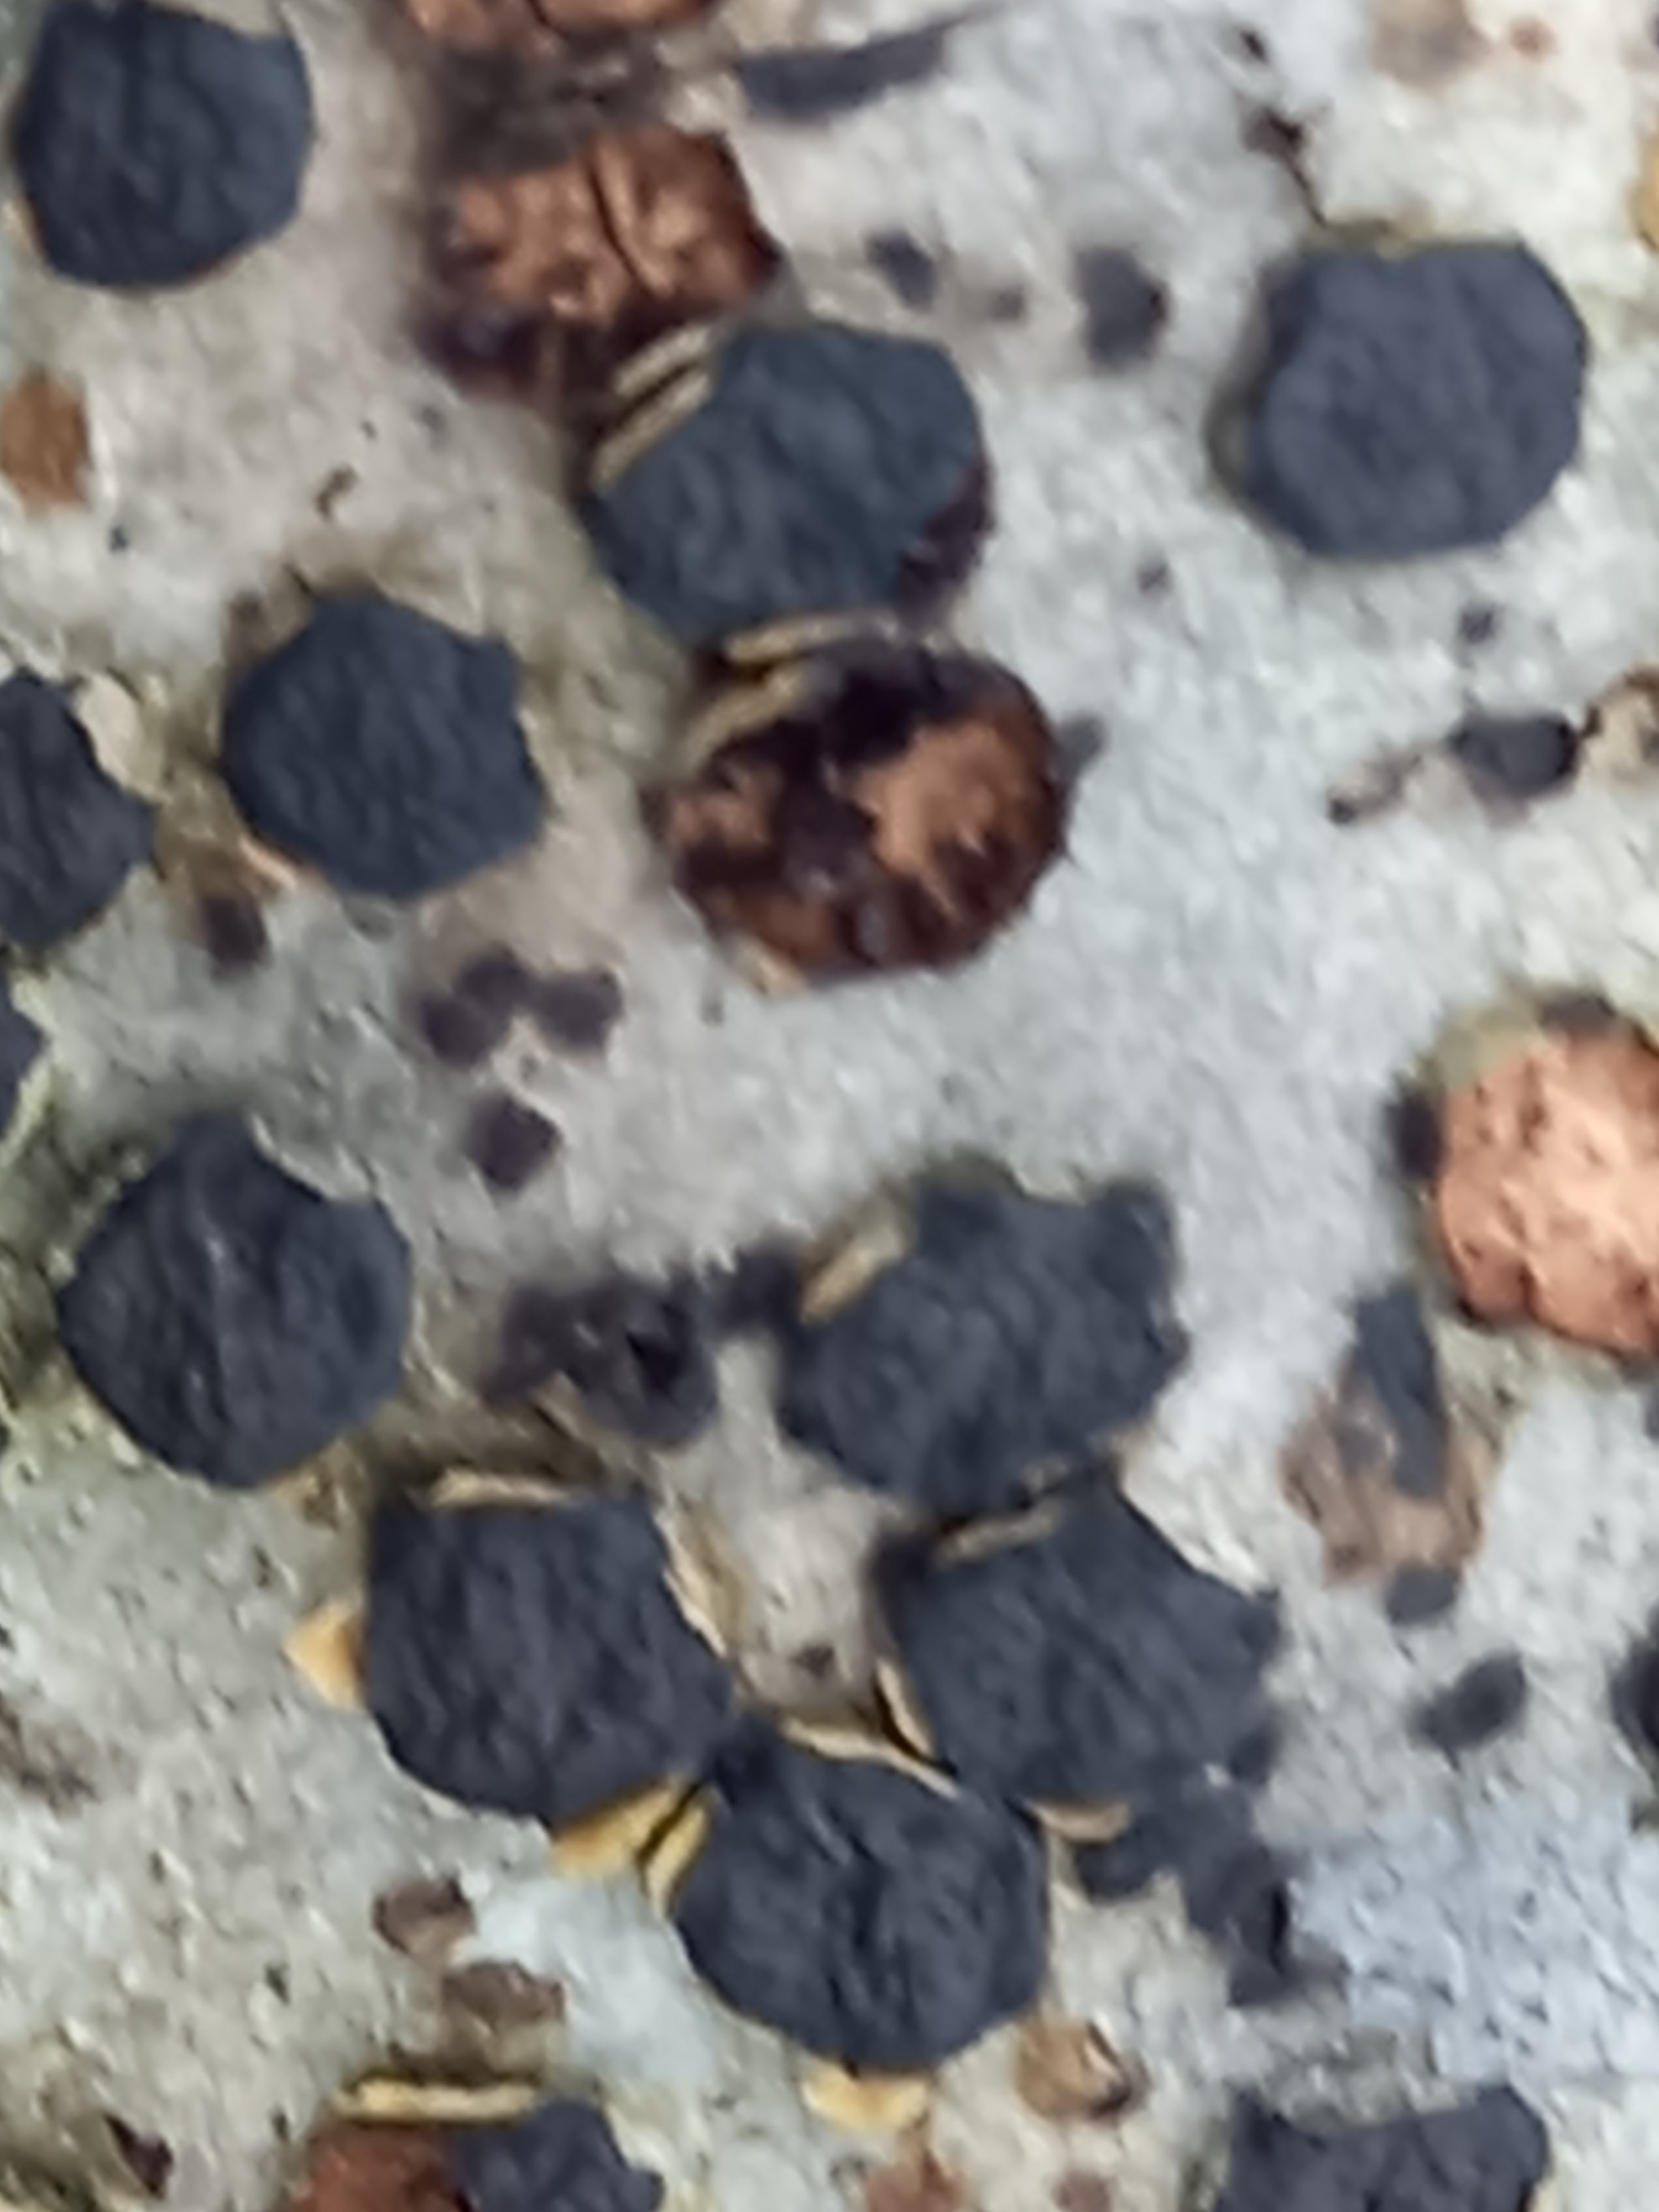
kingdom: Fungi
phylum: Ascomycota
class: Sordariomycetes
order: Xylariales
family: Diatrypaceae
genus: Diatrype
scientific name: Diatrype disciformis
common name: kant-kulskorpe
